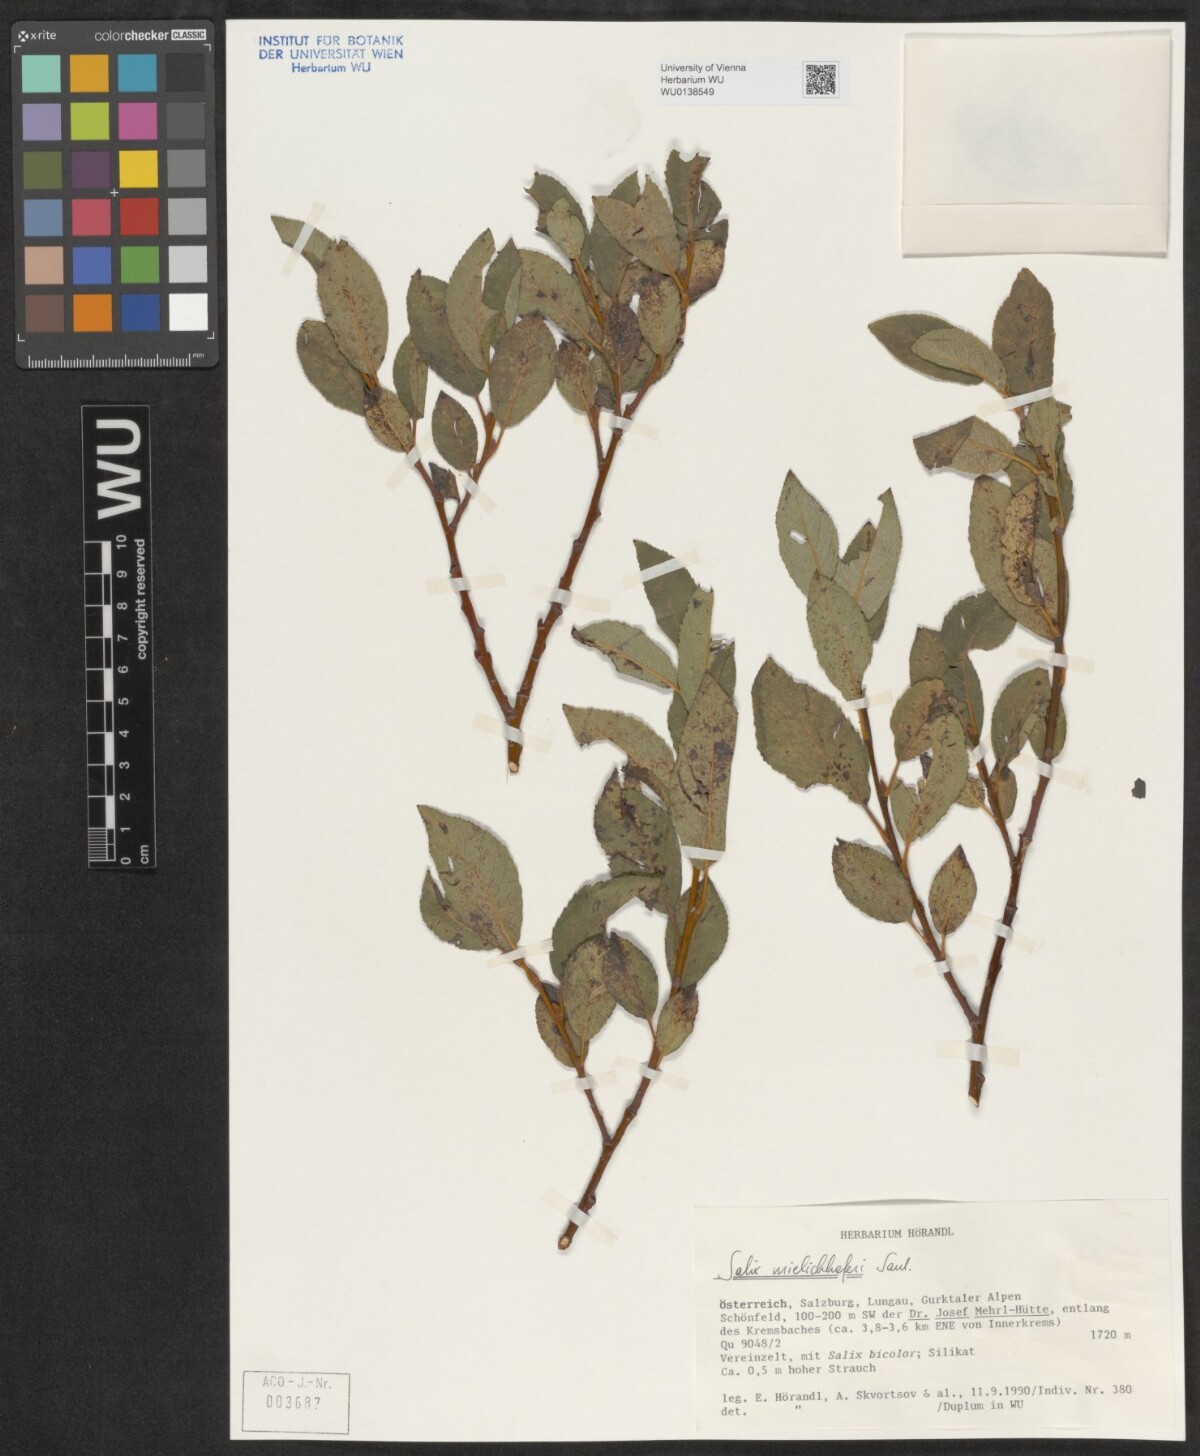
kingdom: Plantae
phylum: Tracheophyta
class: Magnoliopsida
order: Malpighiales
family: Salicaceae
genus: Salix
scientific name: Salix mielichhoferi
